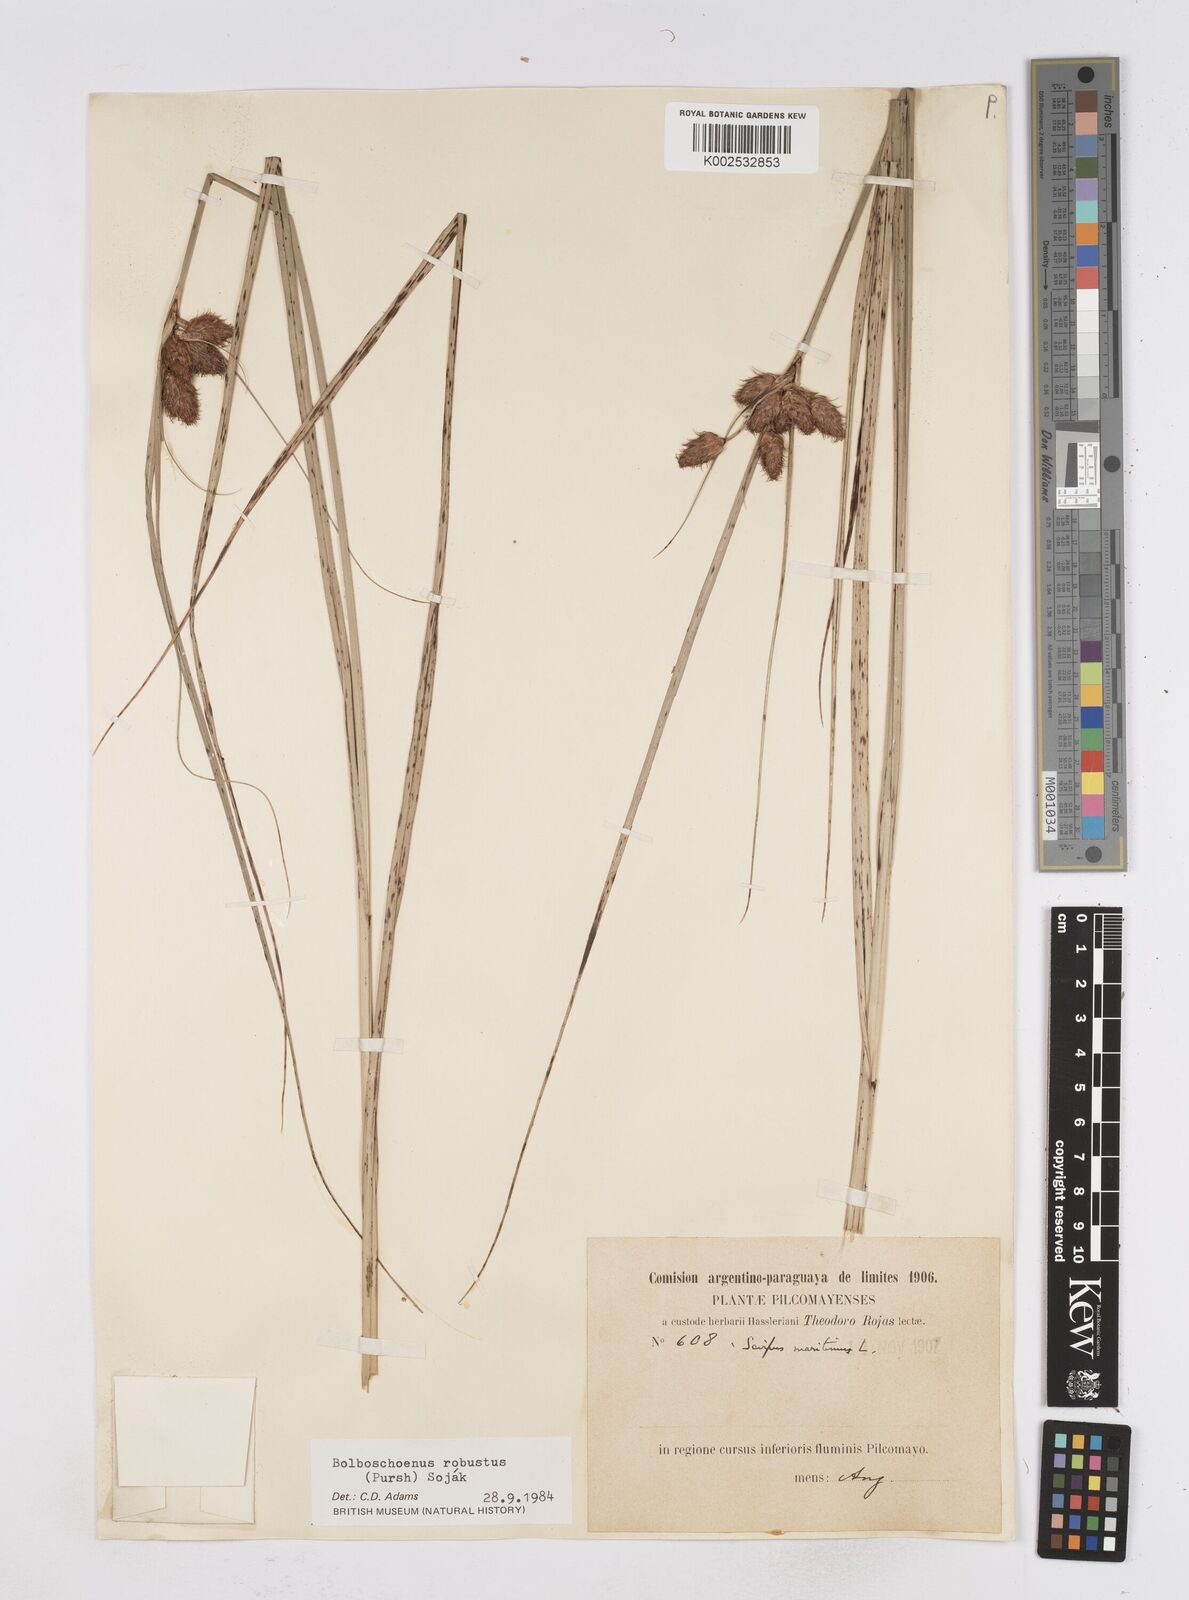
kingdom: Plantae
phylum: Tracheophyta
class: Liliopsida
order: Poales
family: Cyperaceae
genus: Bolboschoenus
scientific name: Bolboschoenus robustus
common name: Seacoast bulrush
